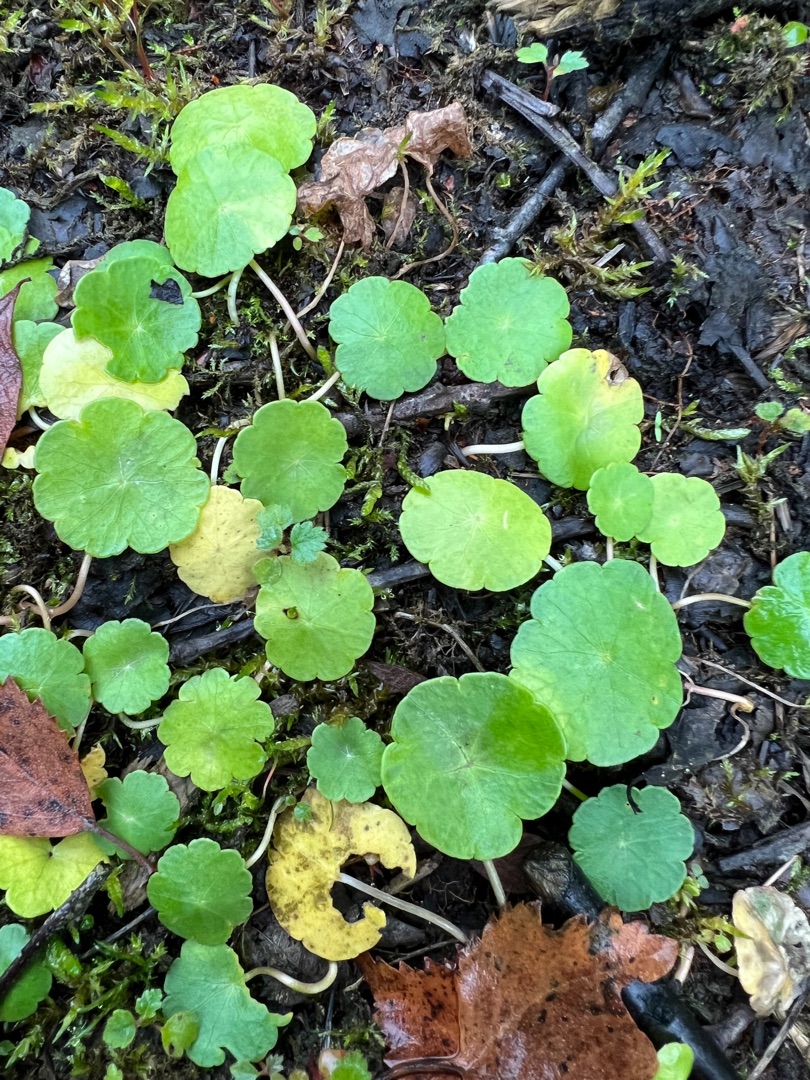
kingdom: Plantae
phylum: Tracheophyta
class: Magnoliopsida
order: Apiales
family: Araliaceae
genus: Hydrocotyle
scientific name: Hydrocotyle vulgaris
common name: Vandnavle
